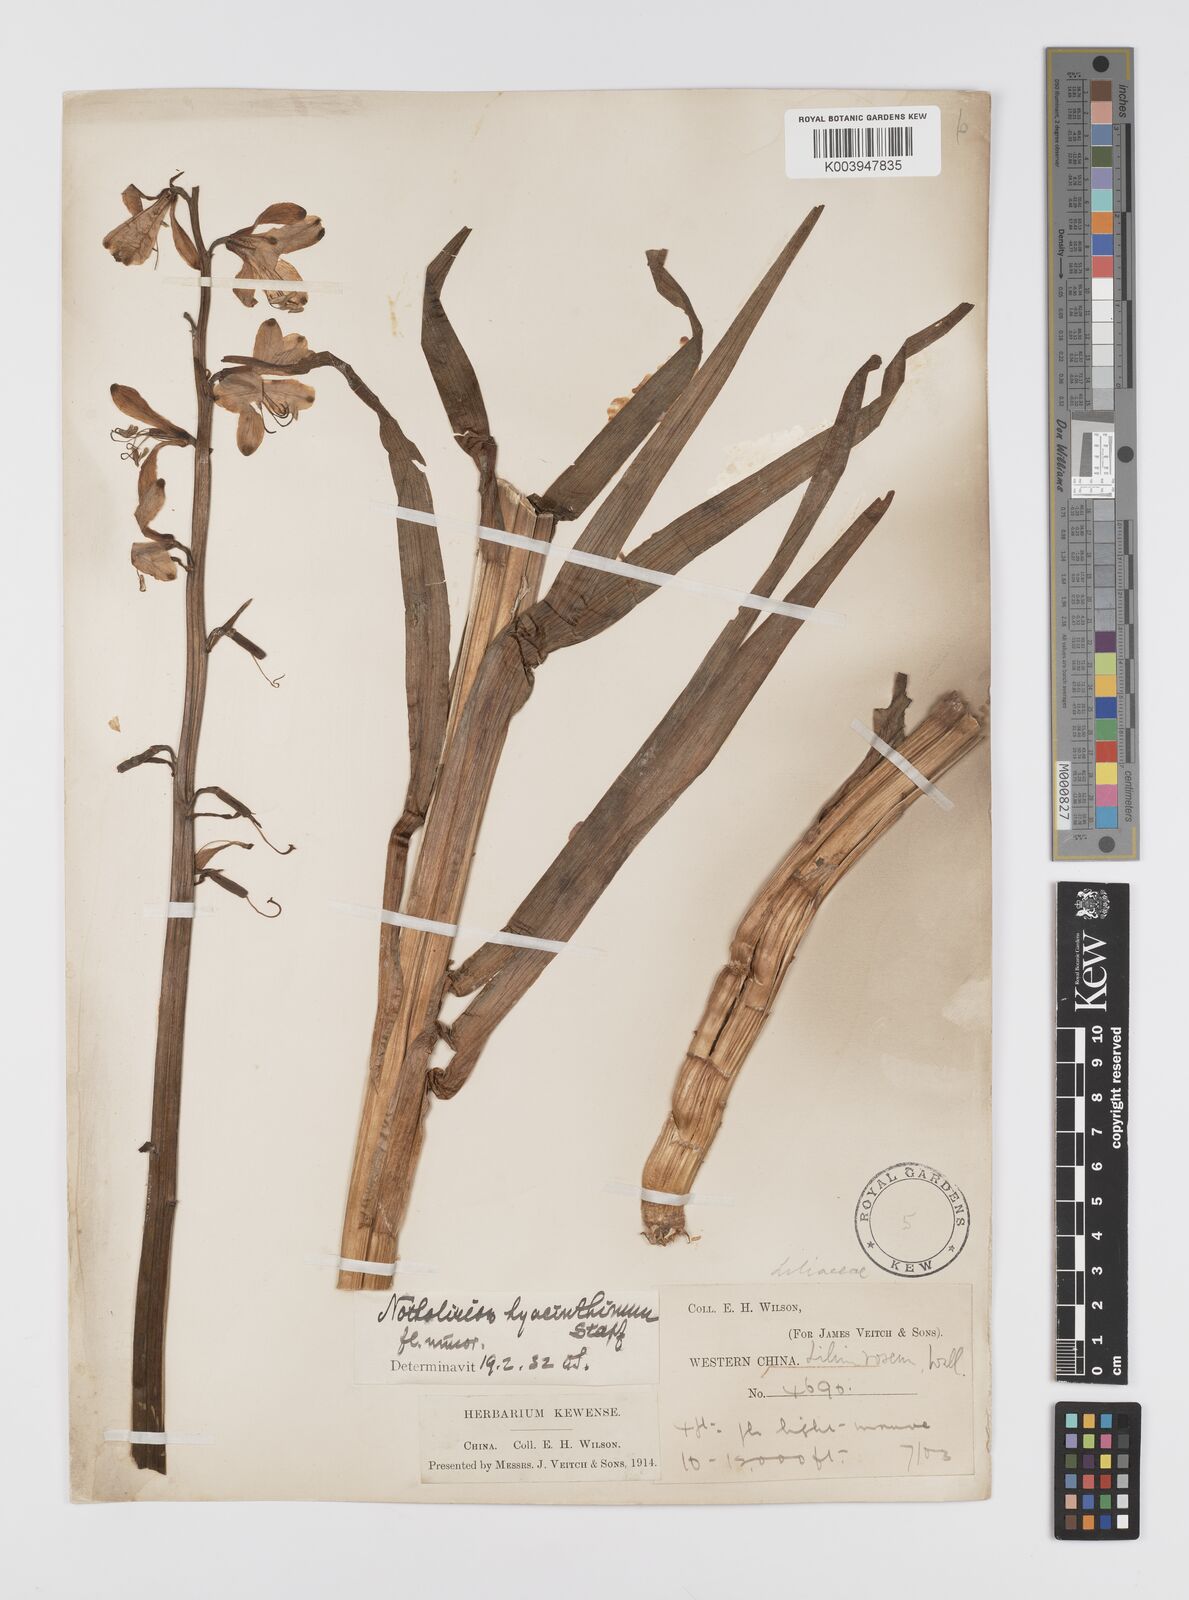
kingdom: Plantae
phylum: Tracheophyta
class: Liliopsida
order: Liliales
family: Liliaceae
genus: Notholirion
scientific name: Notholirion bulbuliferum
